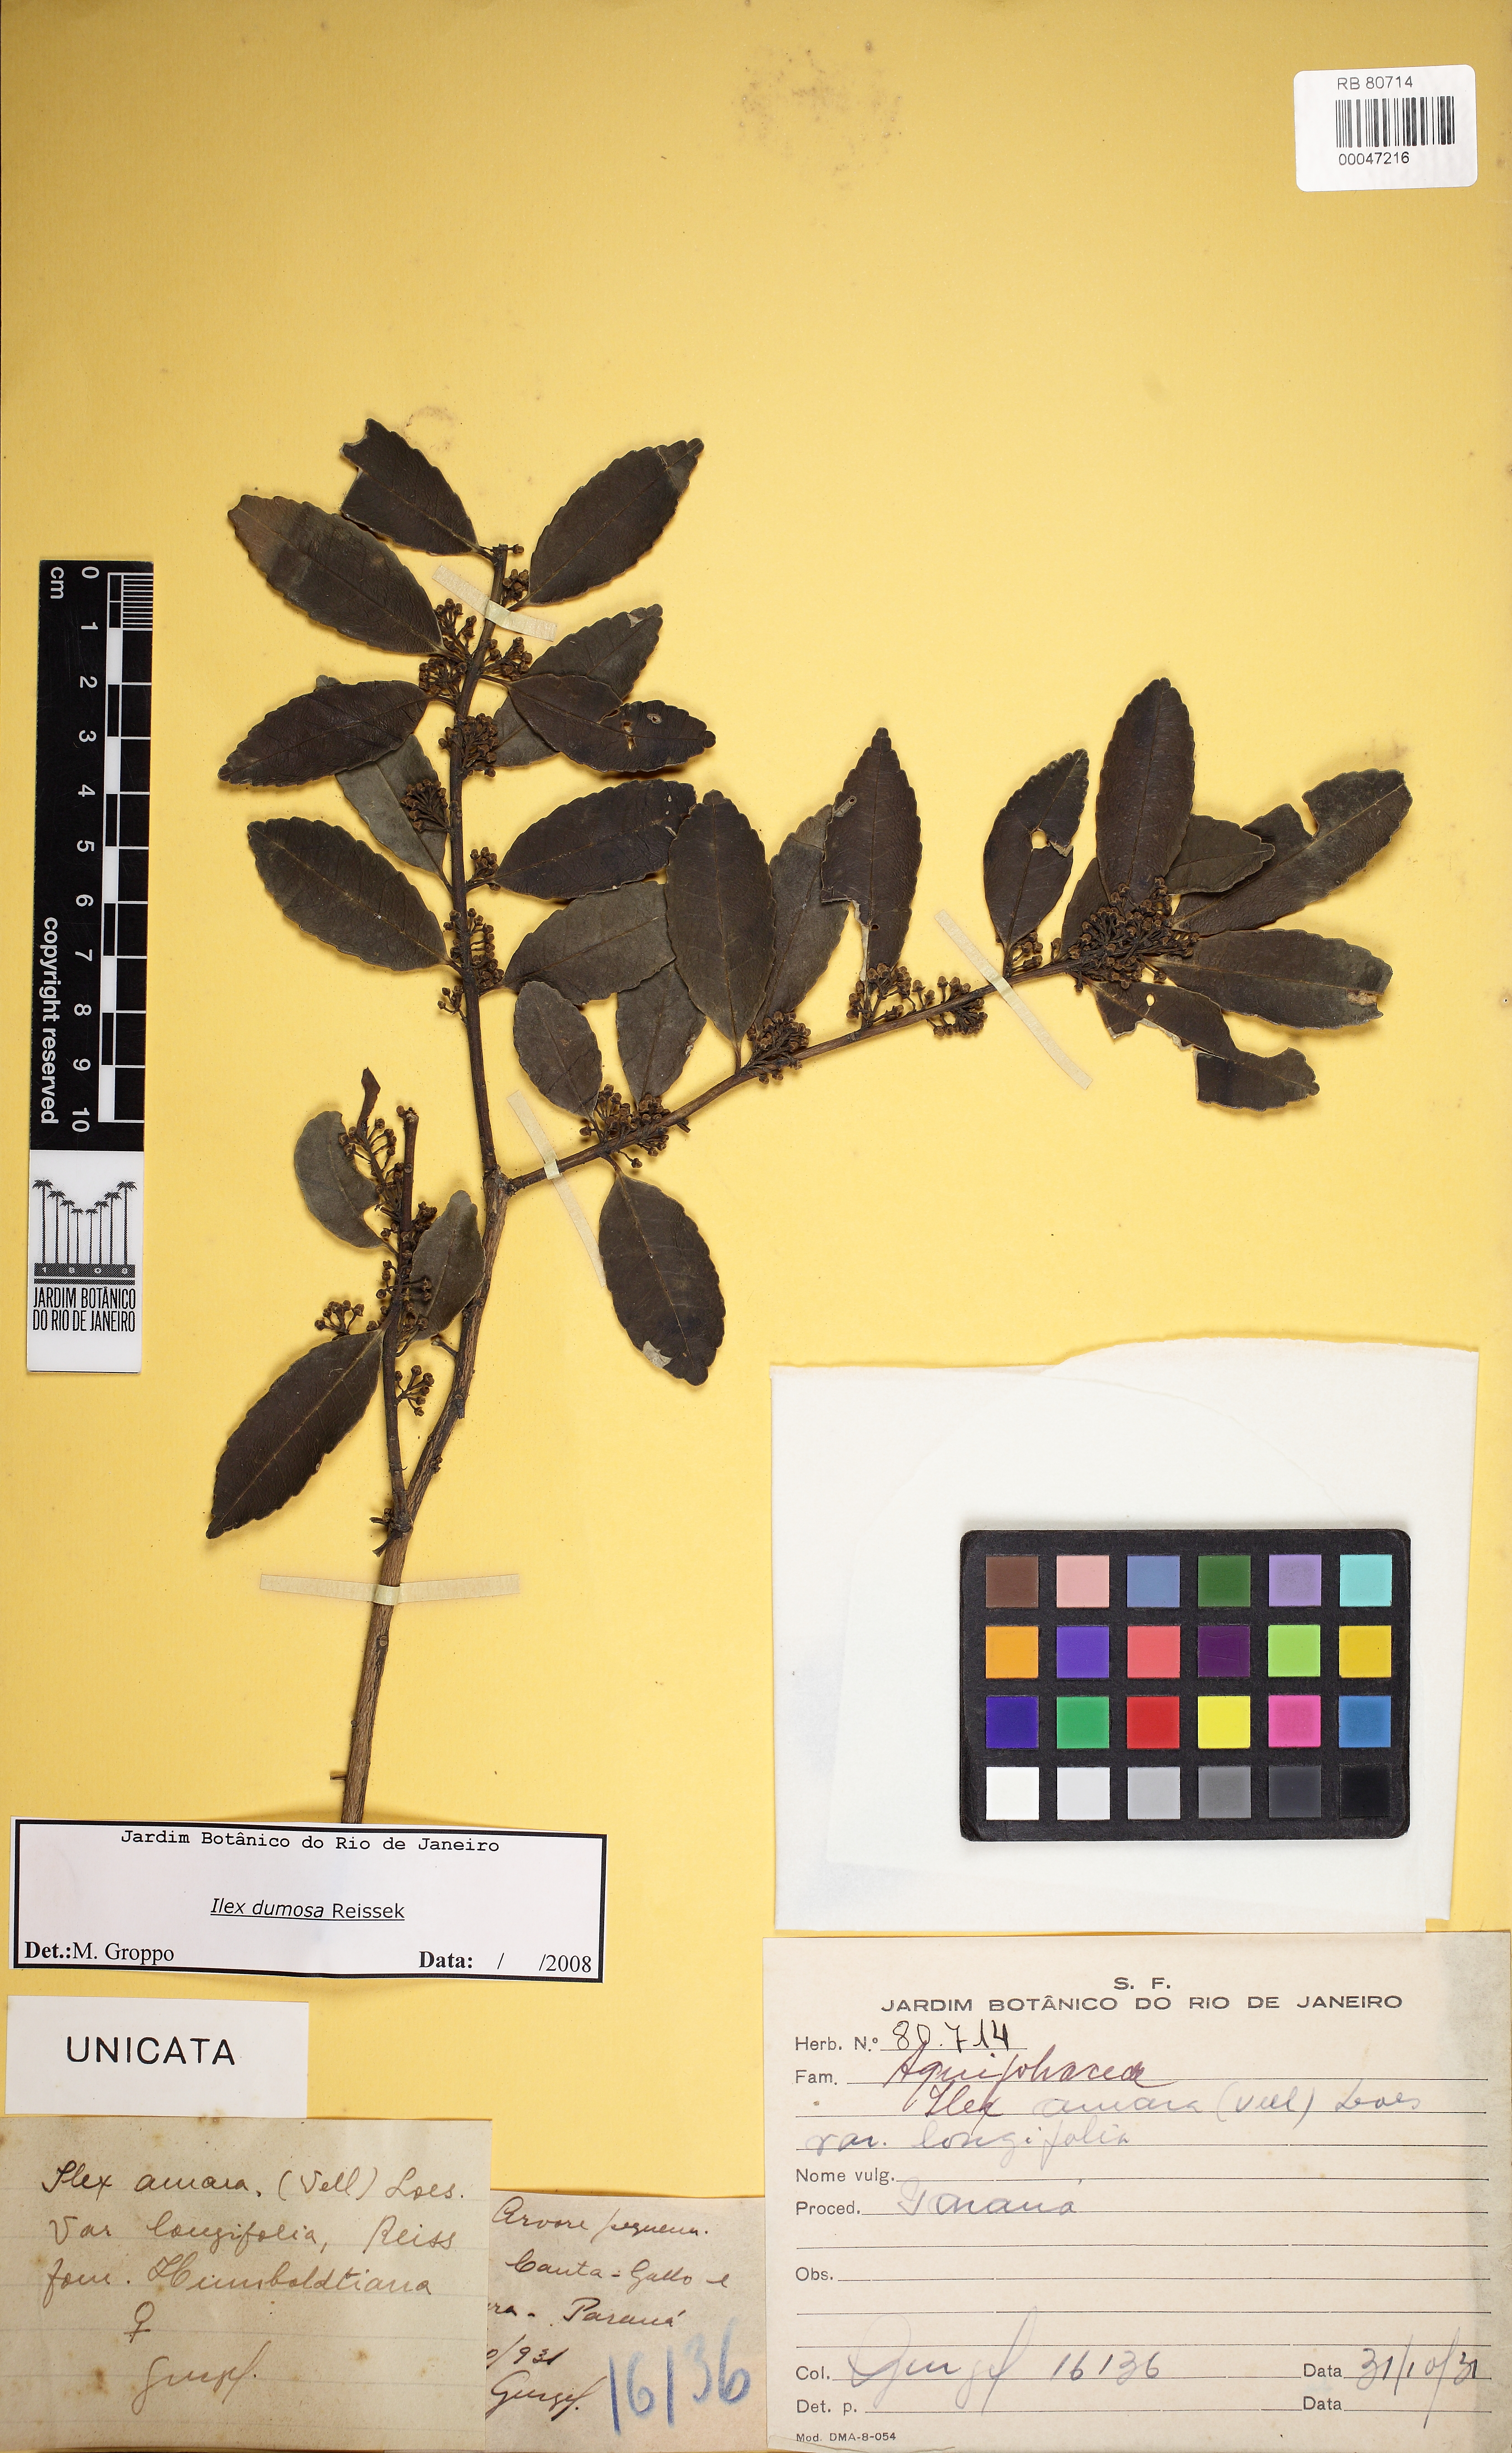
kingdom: Plantae
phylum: Tracheophyta
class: Magnoliopsida
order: Aquifoliales
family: Aquifoliaceae
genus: Ilex
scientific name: Ilex dumosa
